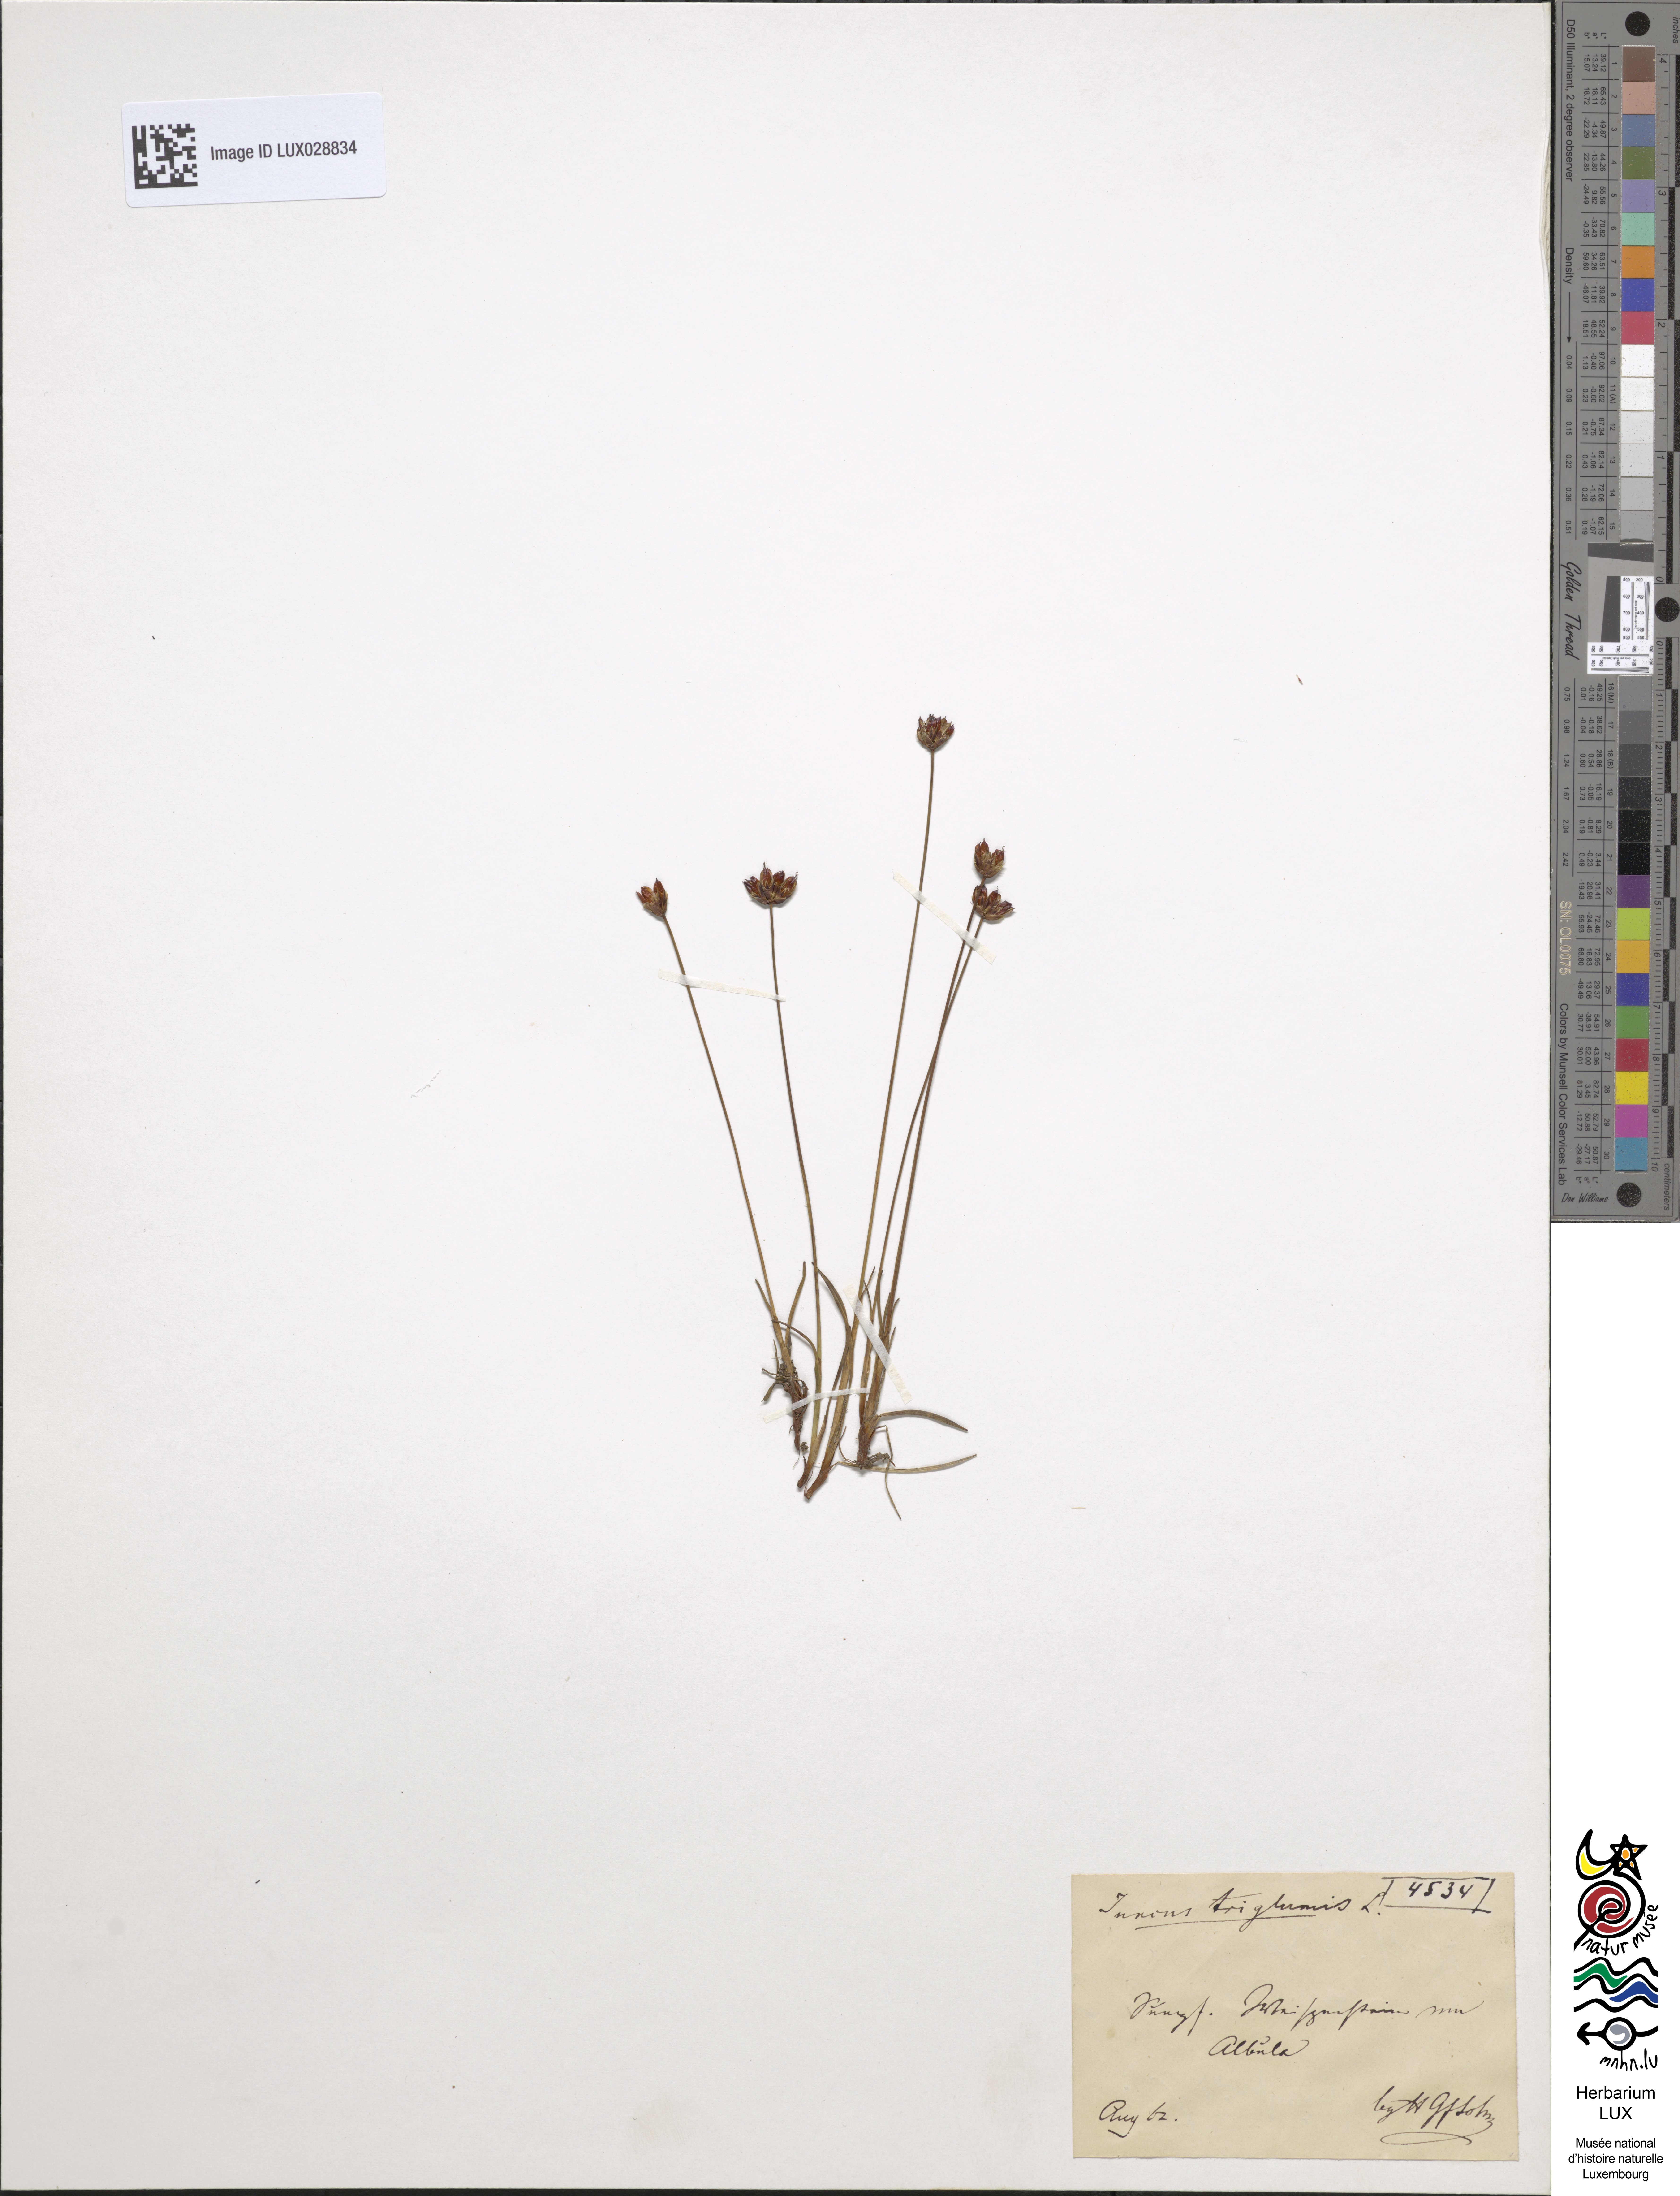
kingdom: Plantae
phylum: Tracheophyta
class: Liliopsida
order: Poales
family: Juncaceae
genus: Juncus
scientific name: Juncus triglumis
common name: Three-flowered rush
